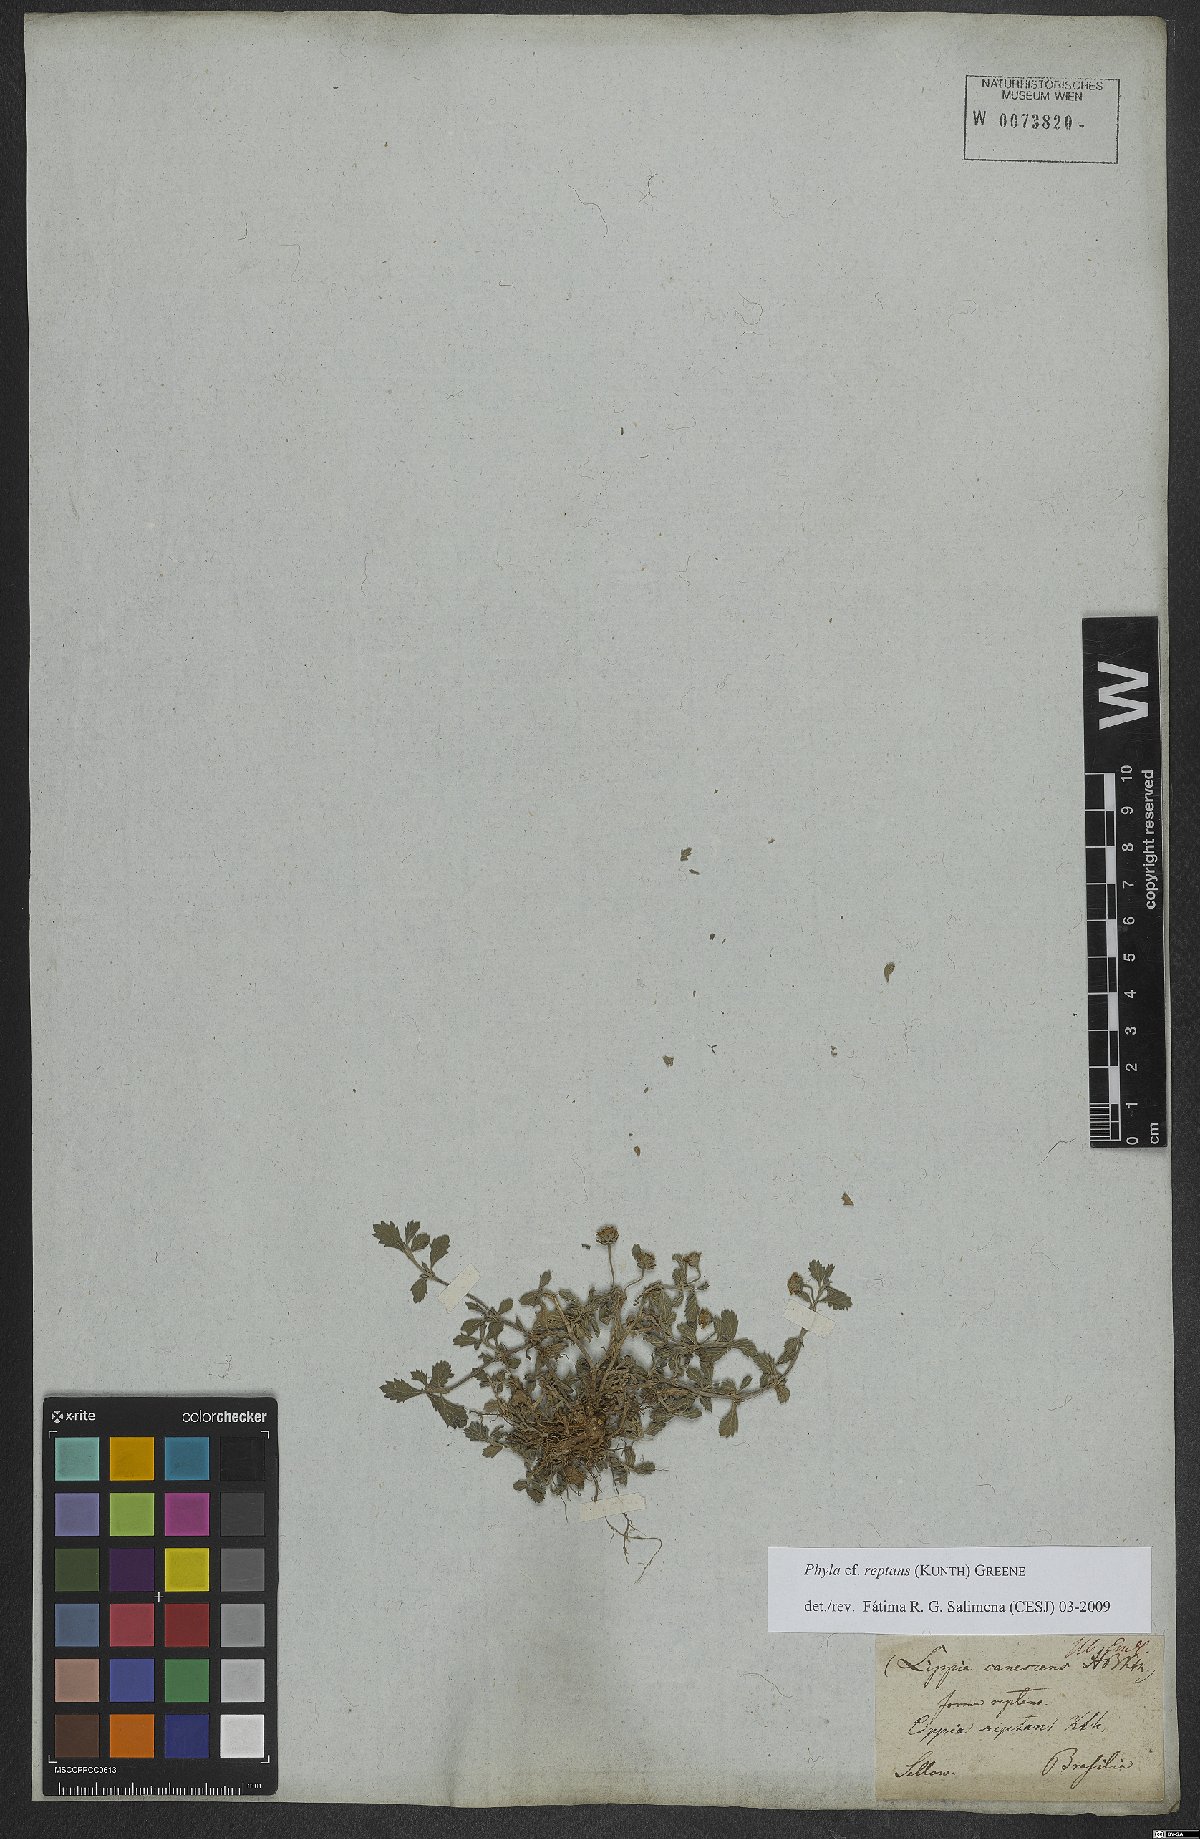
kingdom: Plantae
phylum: Tracheophyta
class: Magnoliopsida
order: Lamiales
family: Verbenaceae
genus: Phyla
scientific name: Phyla nodiflora
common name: Frogfruit
